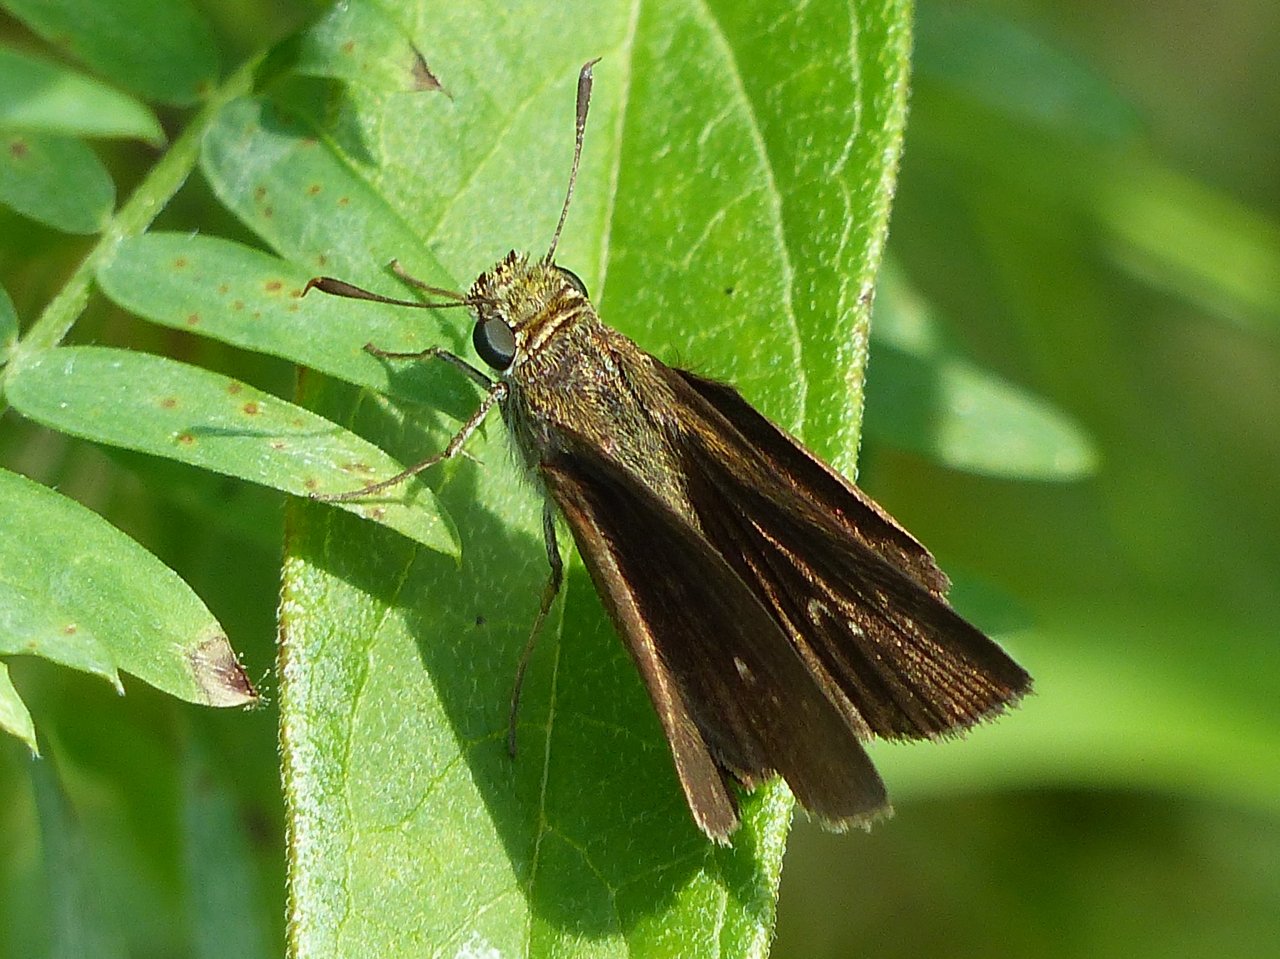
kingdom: Animalia
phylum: Arthropoda
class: Insecta
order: Lepidoptera
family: Hesperiidae
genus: Euphyes
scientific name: Euphyes vestris
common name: Dun Skipper
